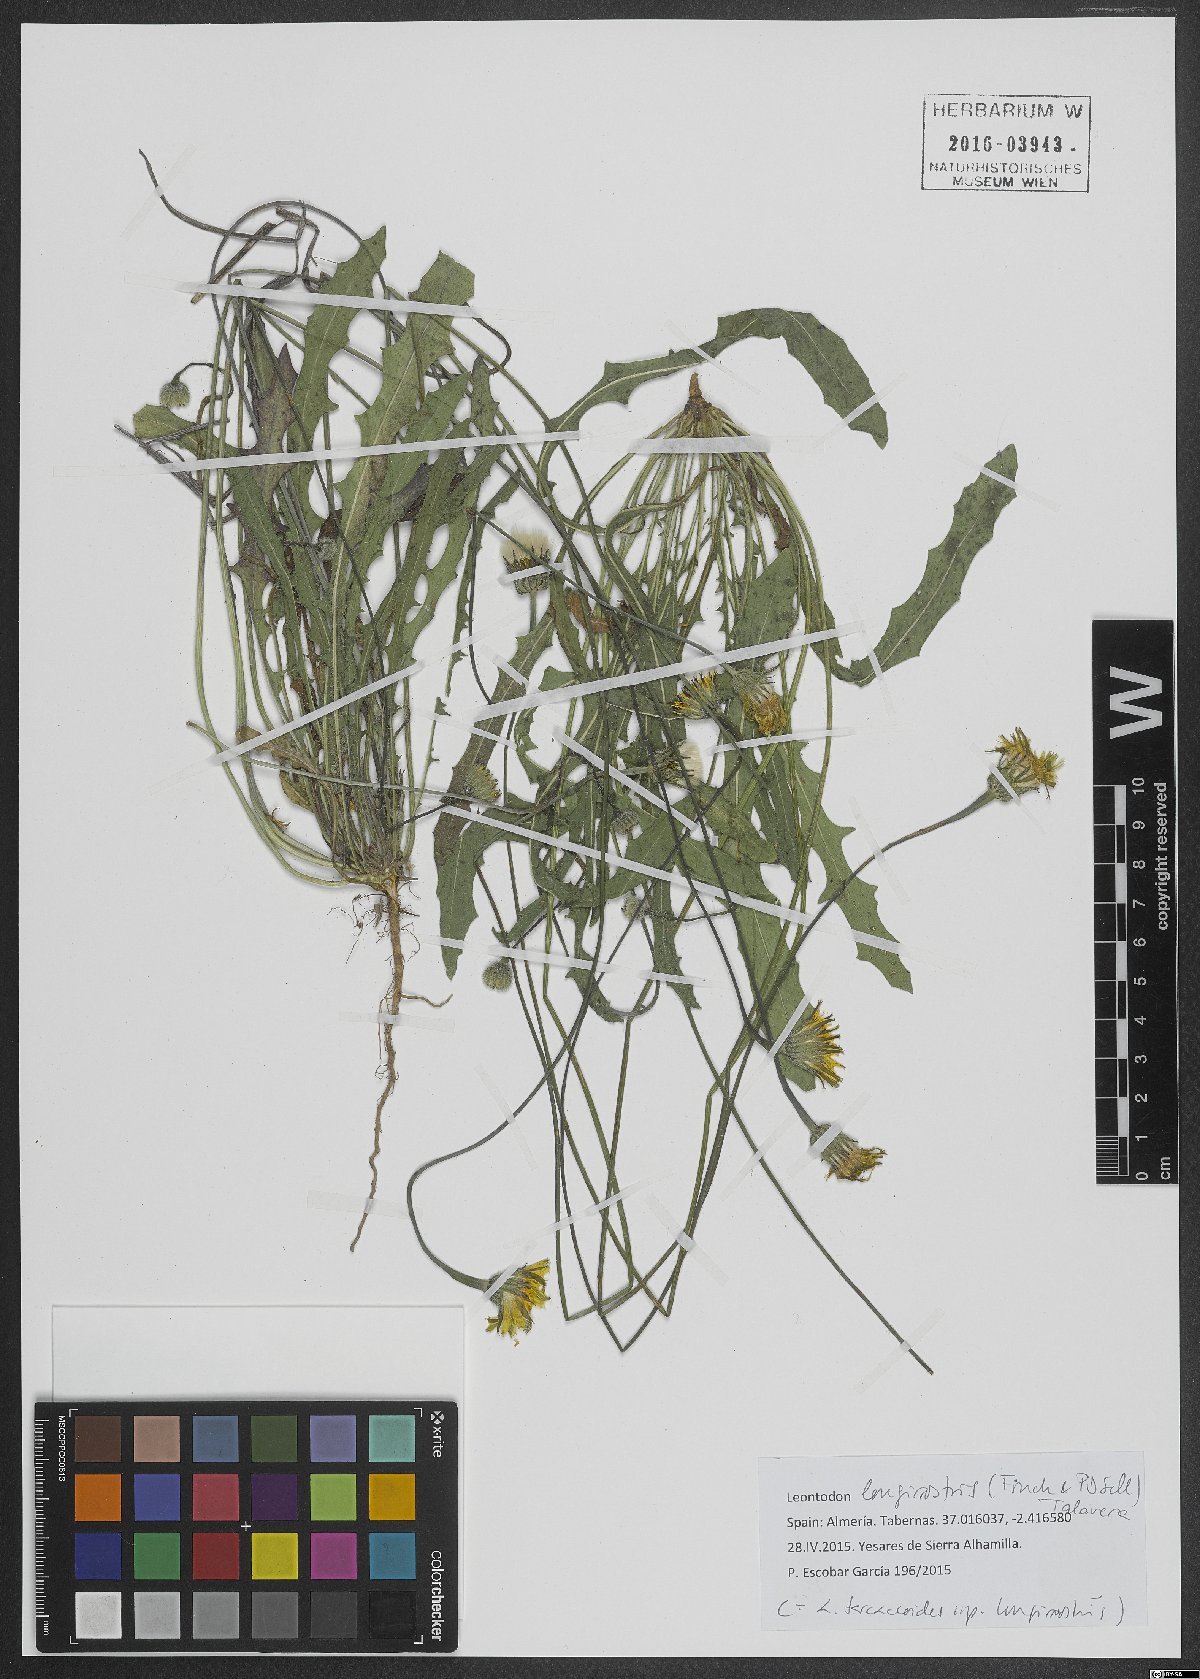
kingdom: Plantae
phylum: Tracheophyta
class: Magnoliopsida
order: Asterales
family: Asteraceae
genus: Thrincia
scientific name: Thrincia hispida
